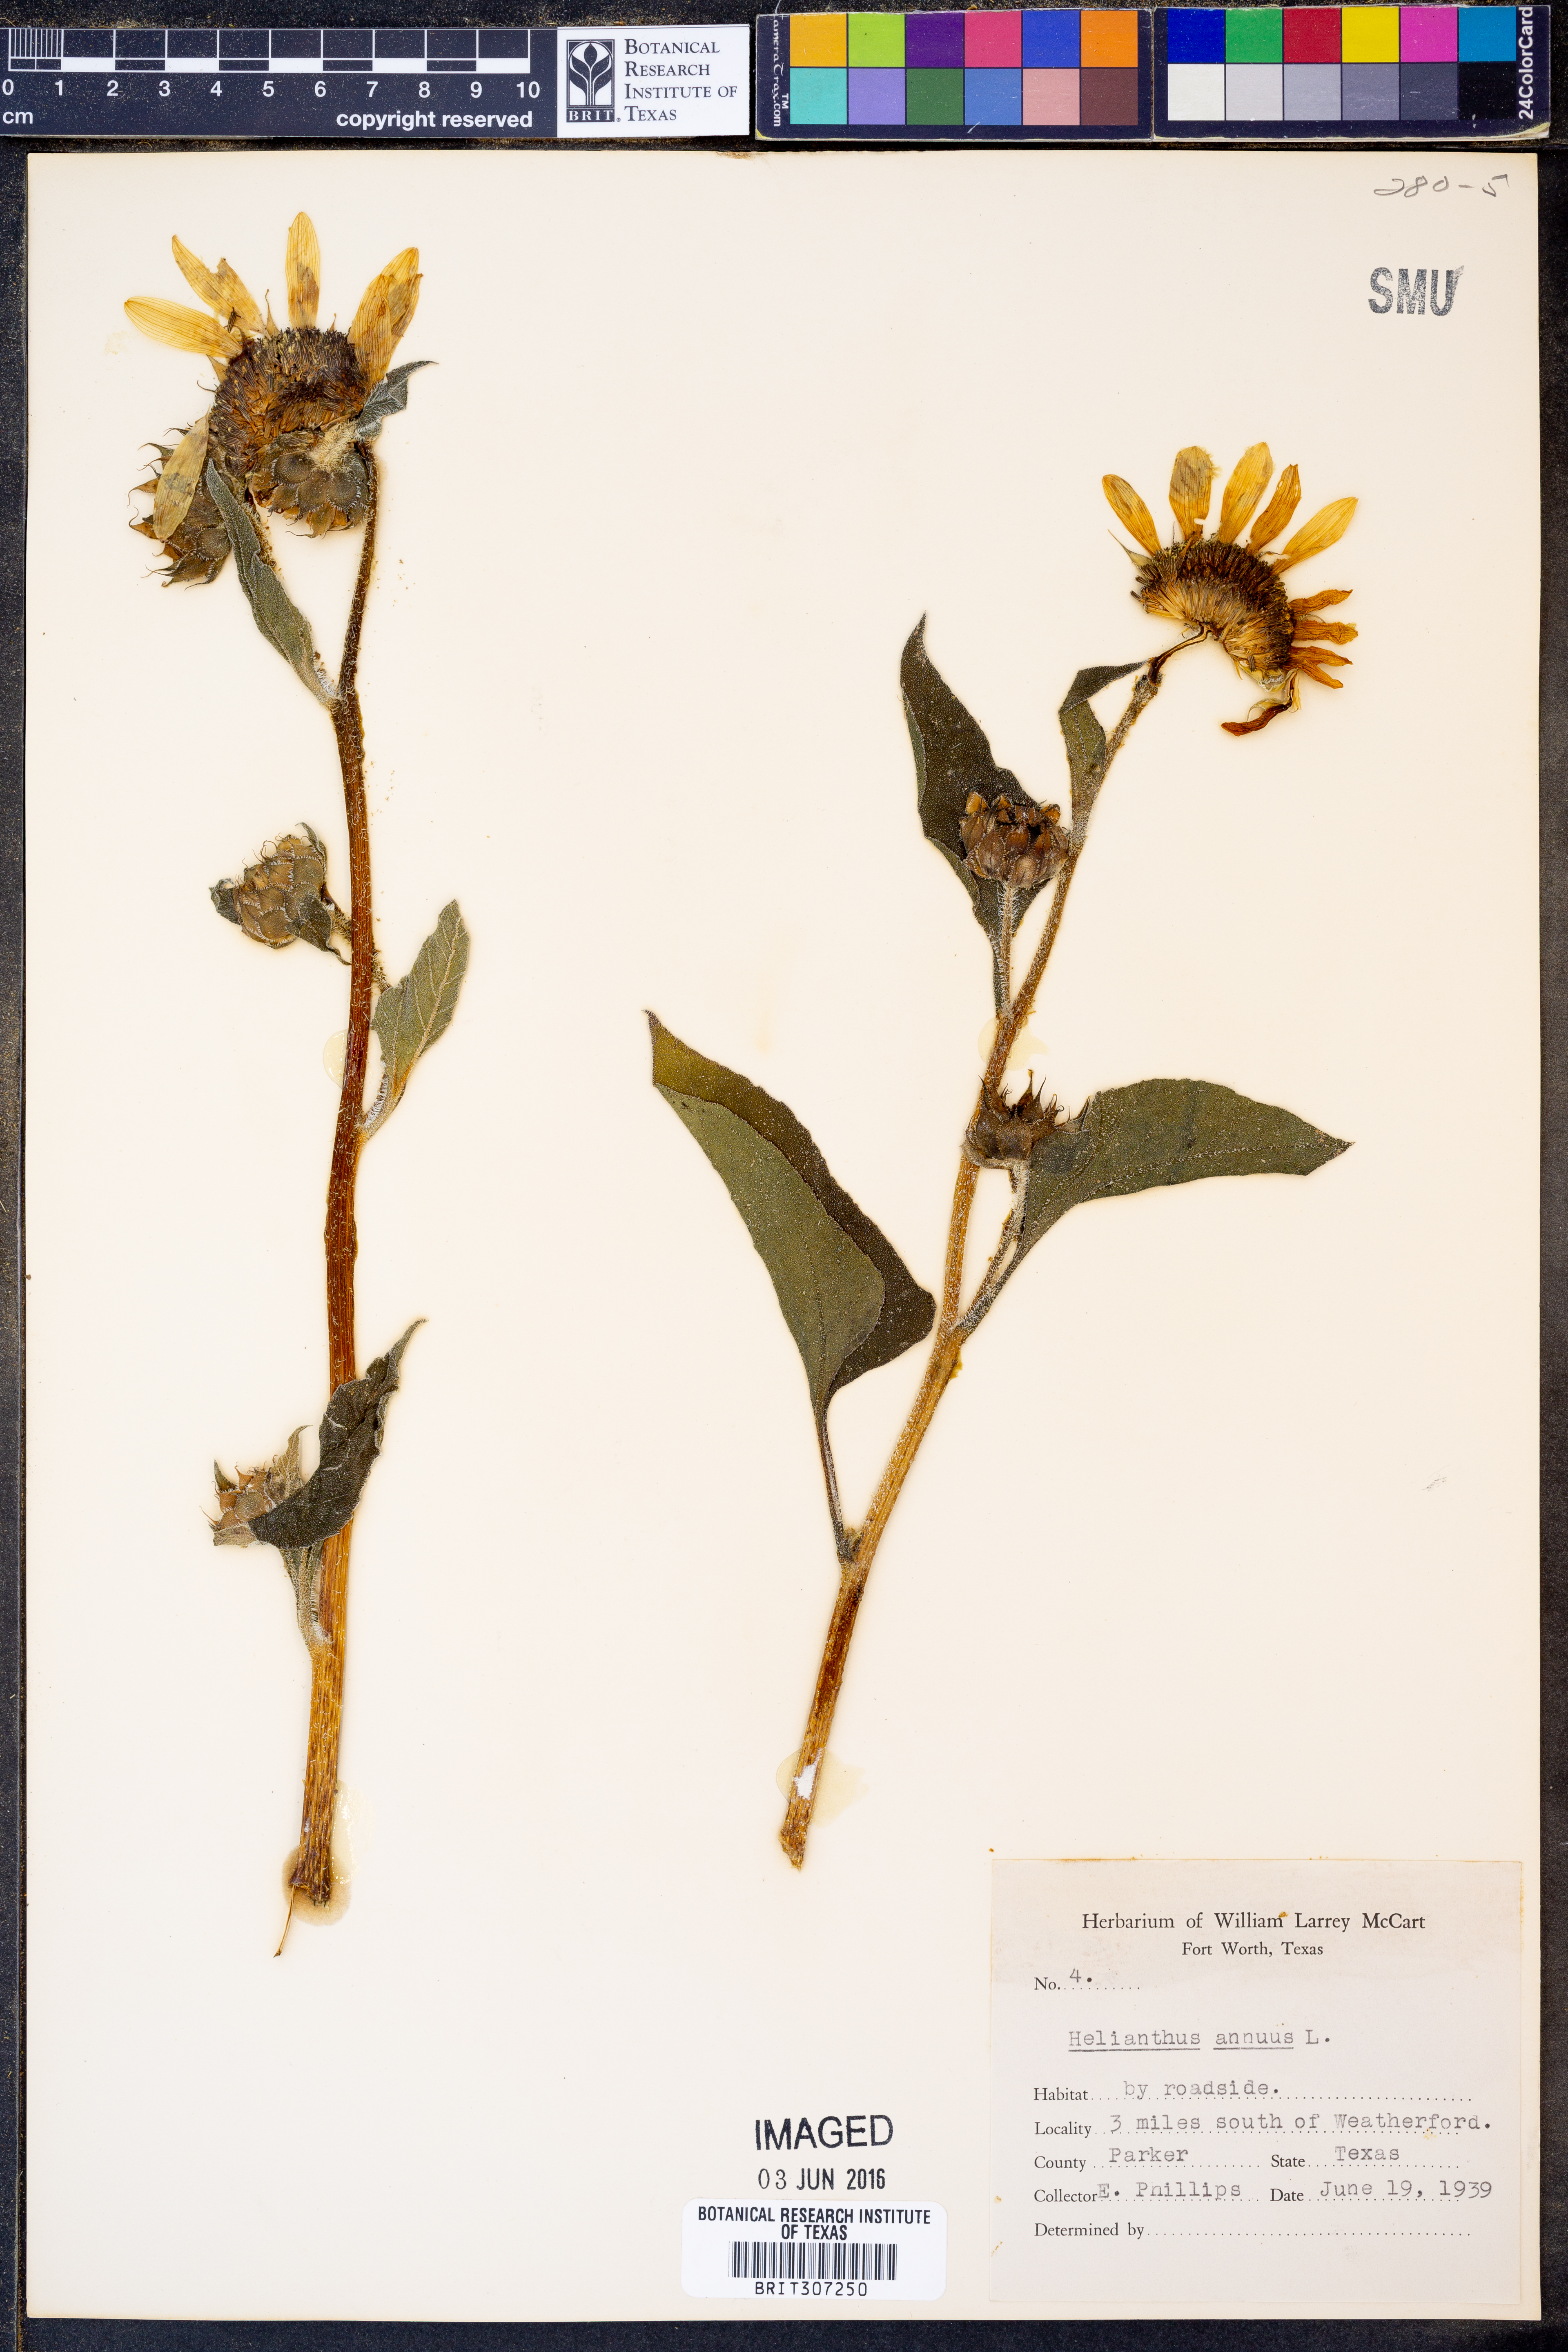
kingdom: Plantae
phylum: Tracheophyta
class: Magnoliopsida
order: Asterales
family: Asteraceae
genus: Helianthus
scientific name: Helianthus annuus
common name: Sunflower
